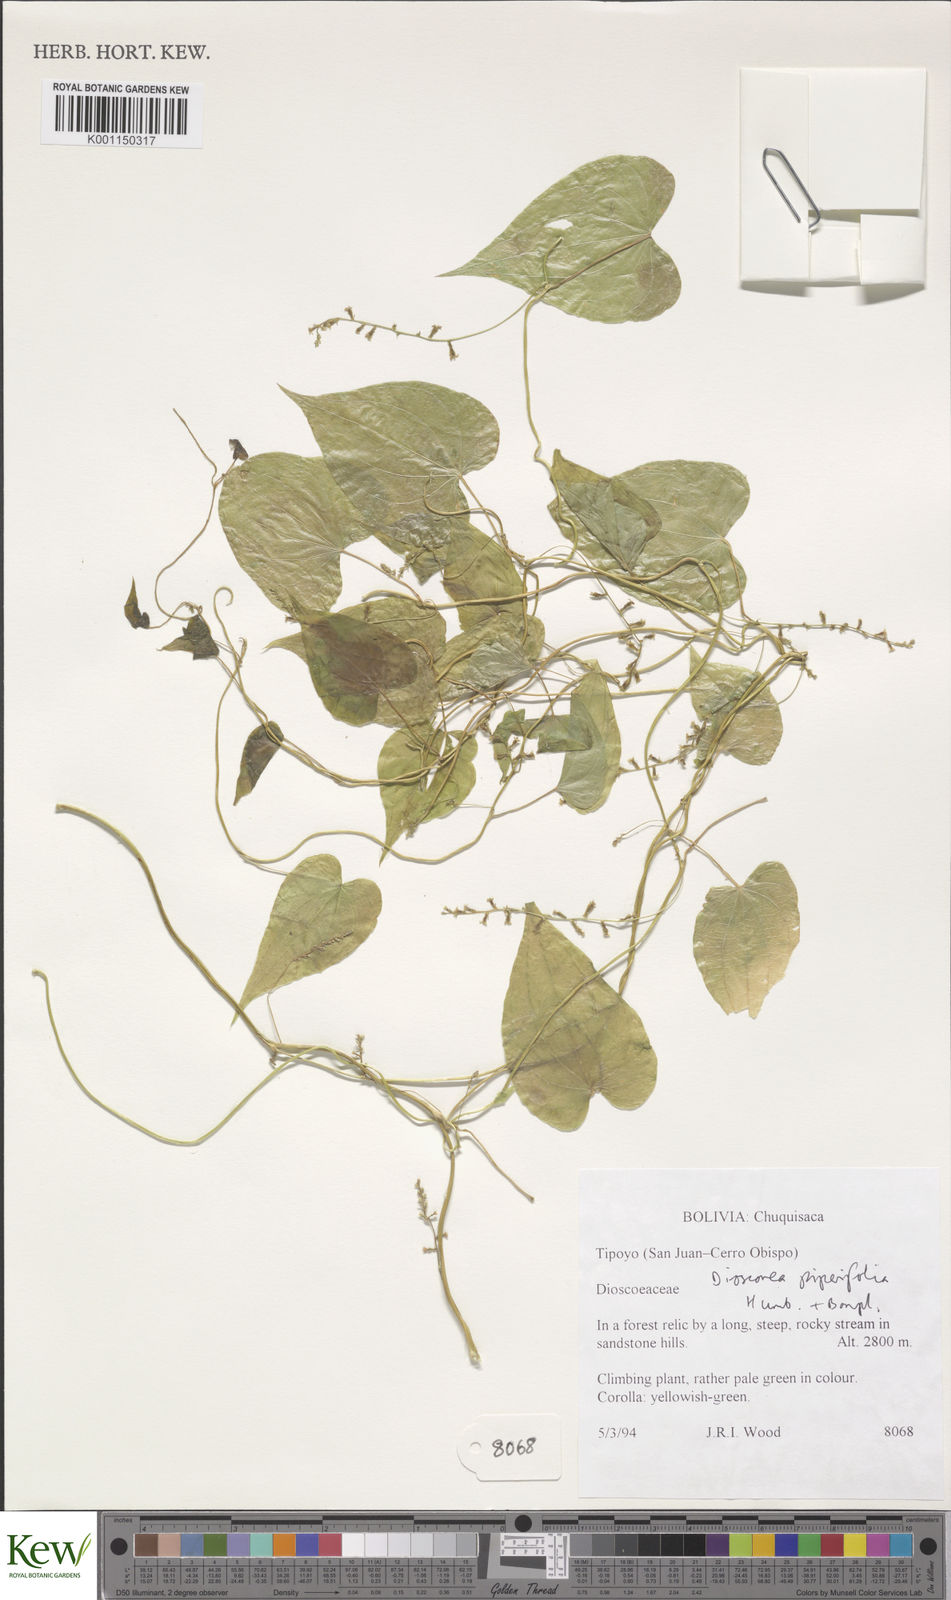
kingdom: Plantae
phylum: Tracheophyta
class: Liliopsida
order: Dioscoreales
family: Dioscoreaceae
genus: Dioscorea
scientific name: Dioscorea piperifolia
